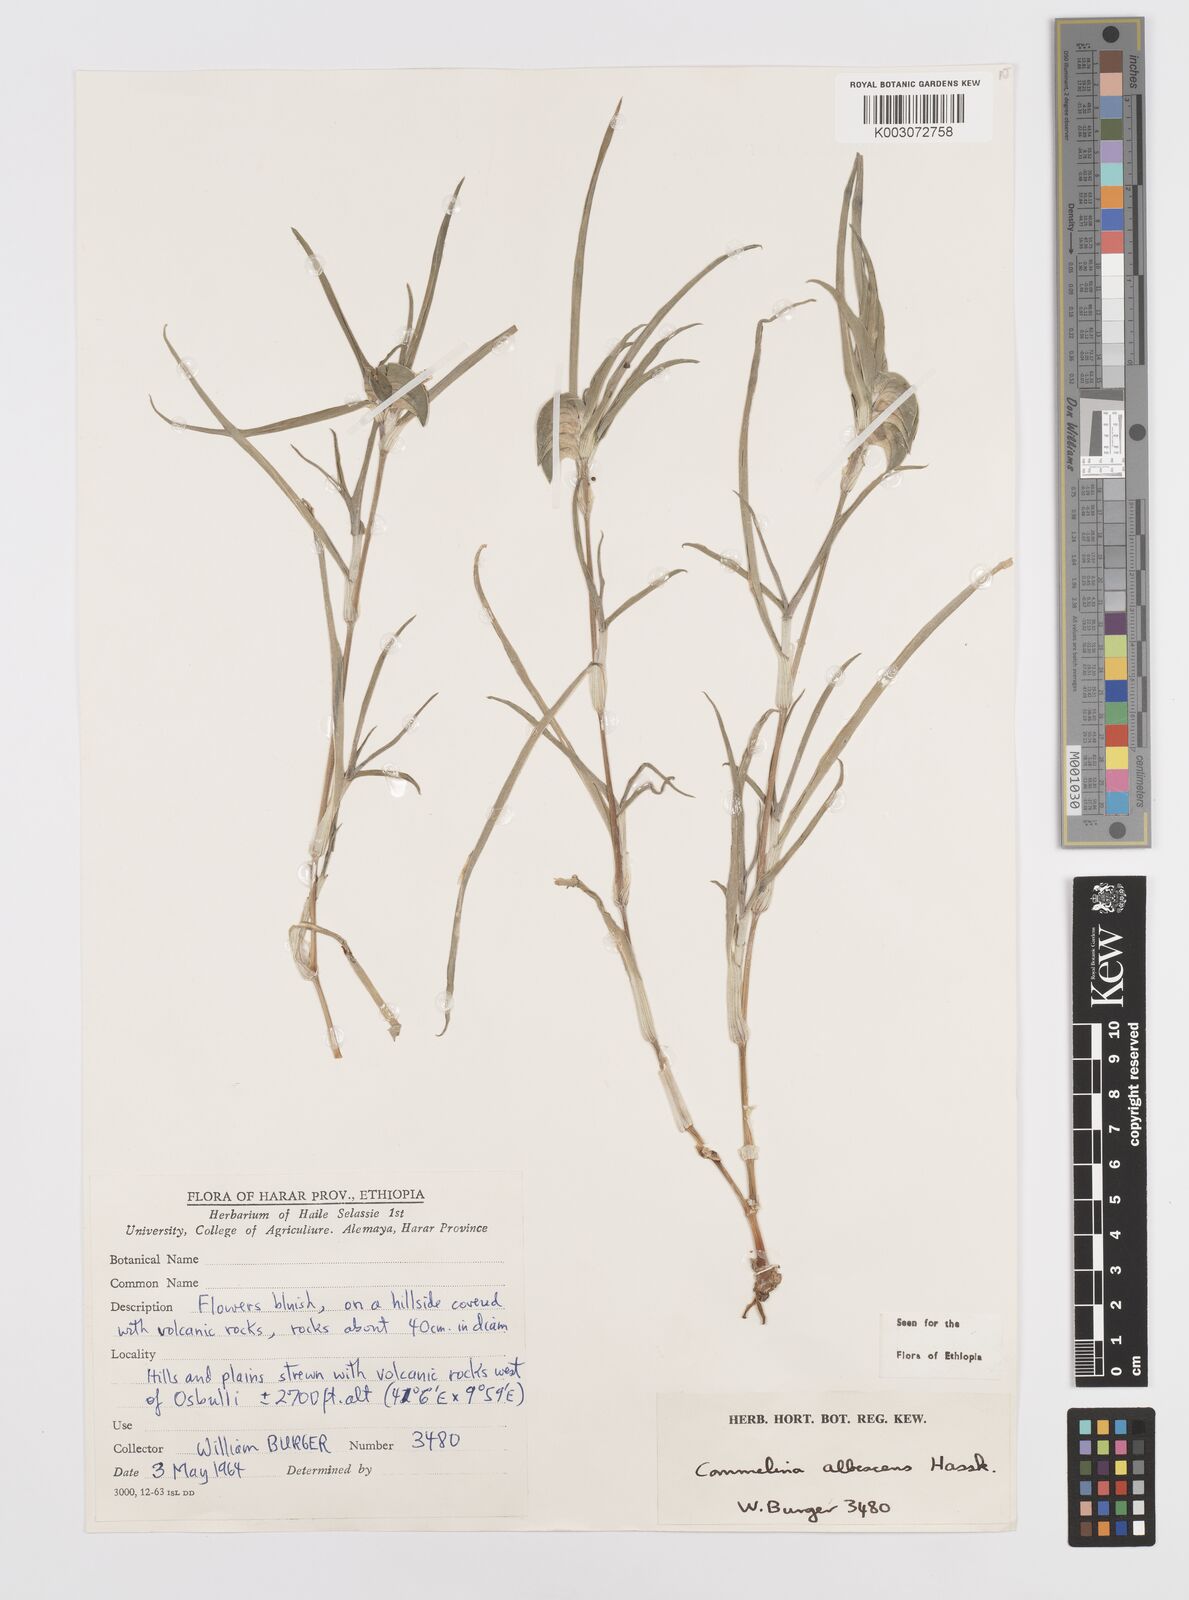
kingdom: Plantae
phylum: Tracheophyta
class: Liliopsida
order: Commelinales
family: Commelinaceae
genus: Commelina
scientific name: Commelina albescens
